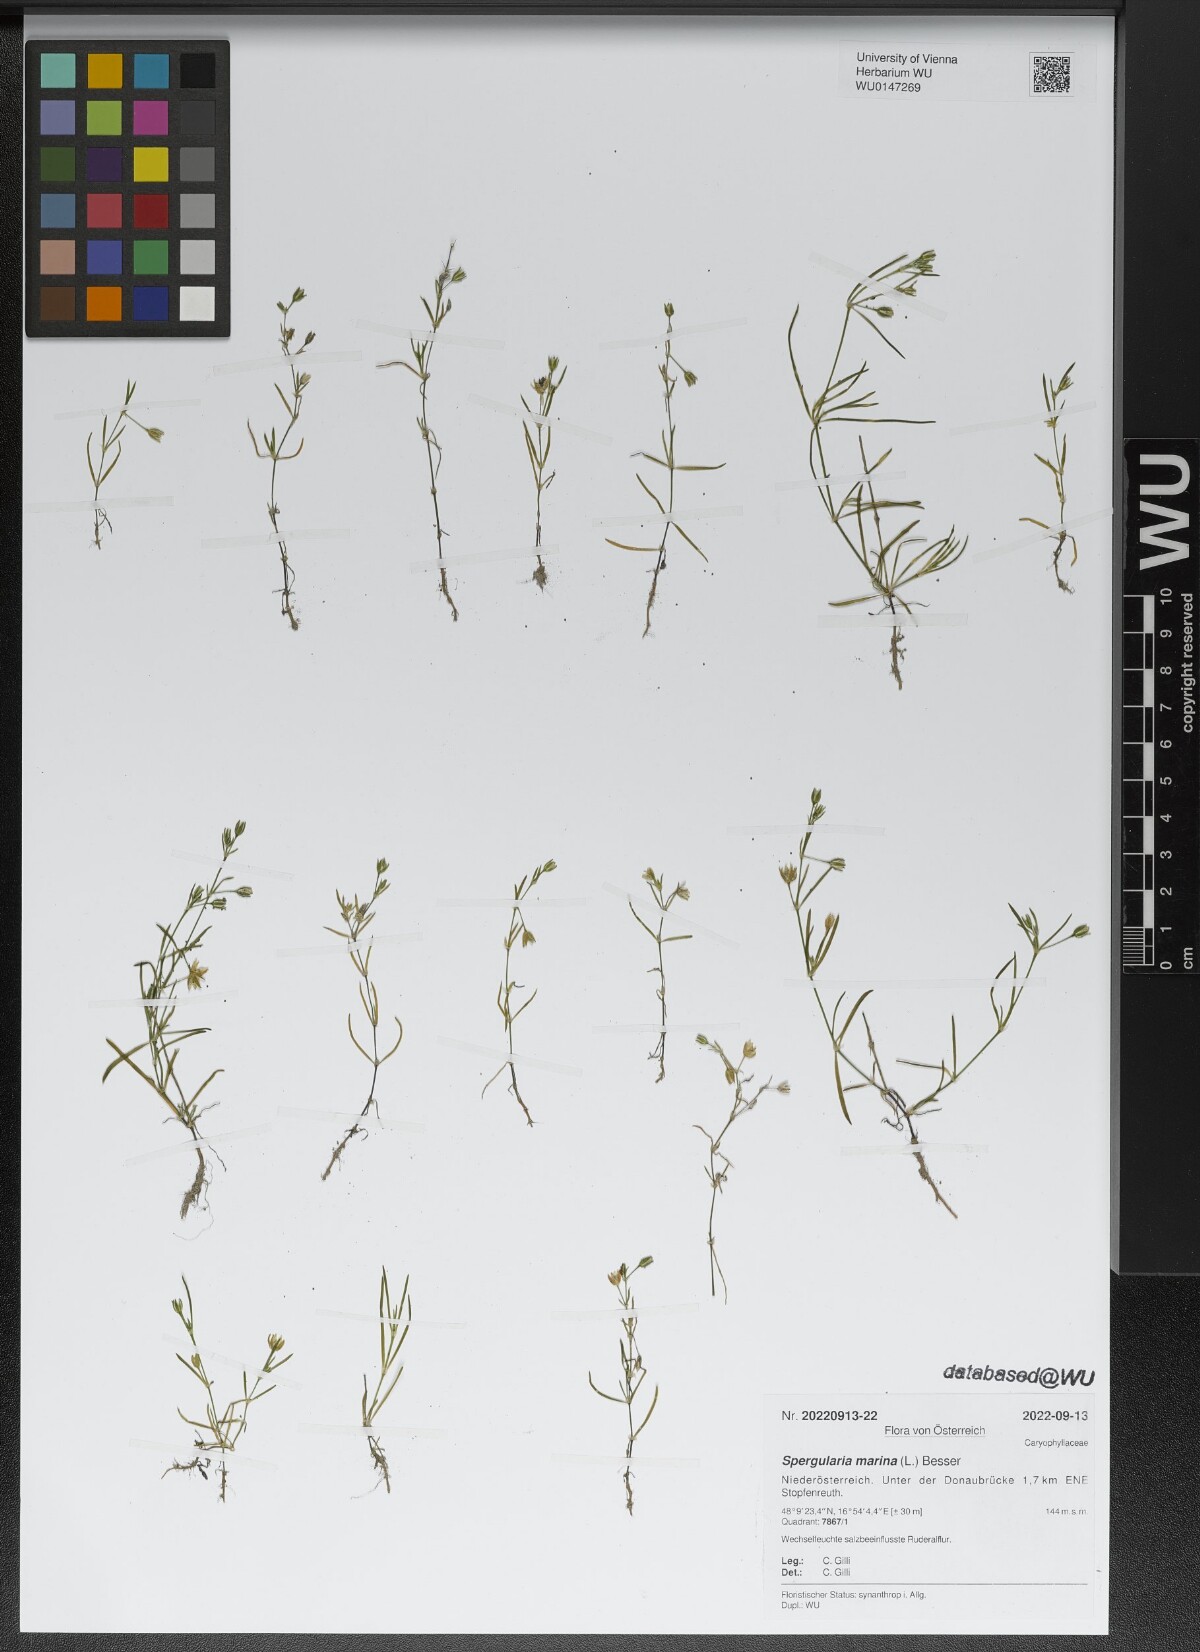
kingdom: Plantae
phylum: Tracheophyta
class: Magnoliopsida
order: Caryophyllales
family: Caryophyllaceae
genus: Spergularia
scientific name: Spergularia marina
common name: Lesser sea-spurrey
